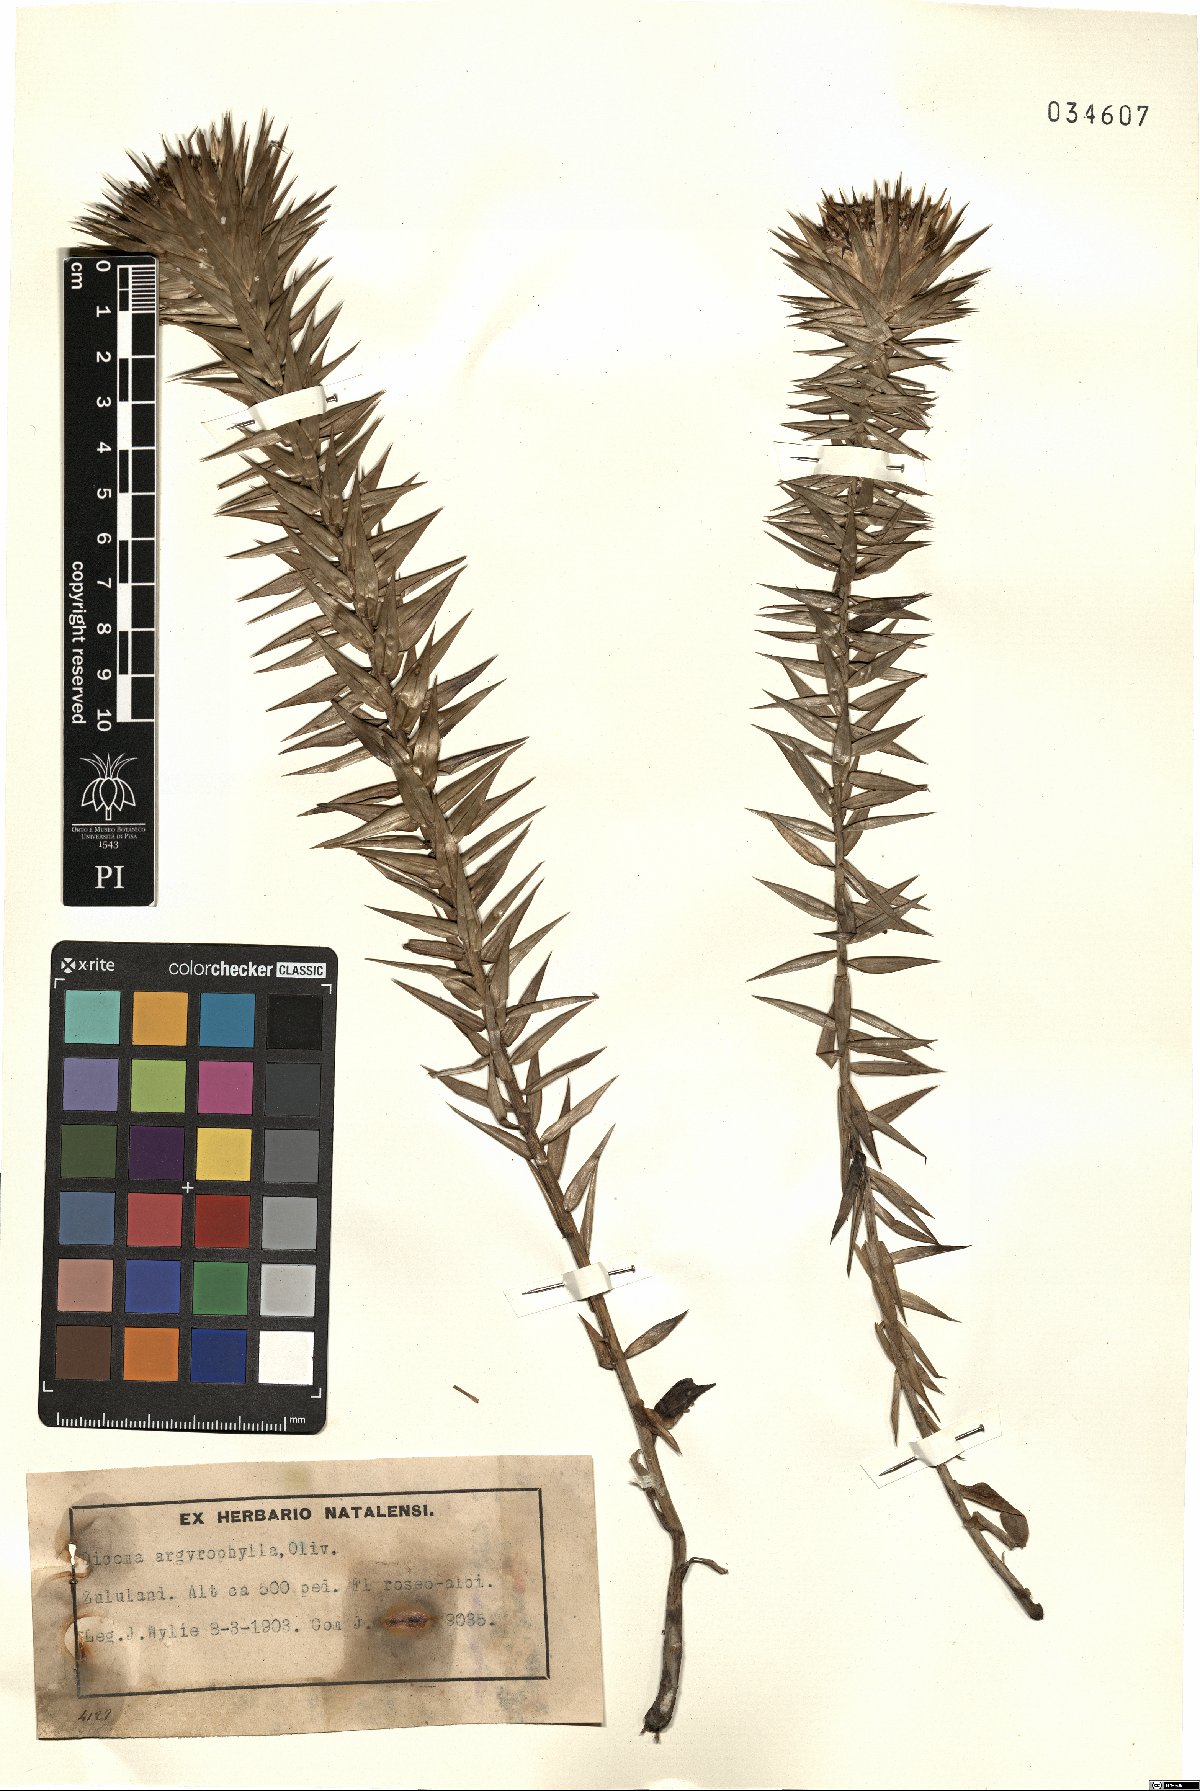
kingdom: Plantae
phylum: Tracheophyta
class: Magnoliopsida
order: Asterales
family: Asteraceae
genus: Macledium
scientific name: Macledium zeyheri
